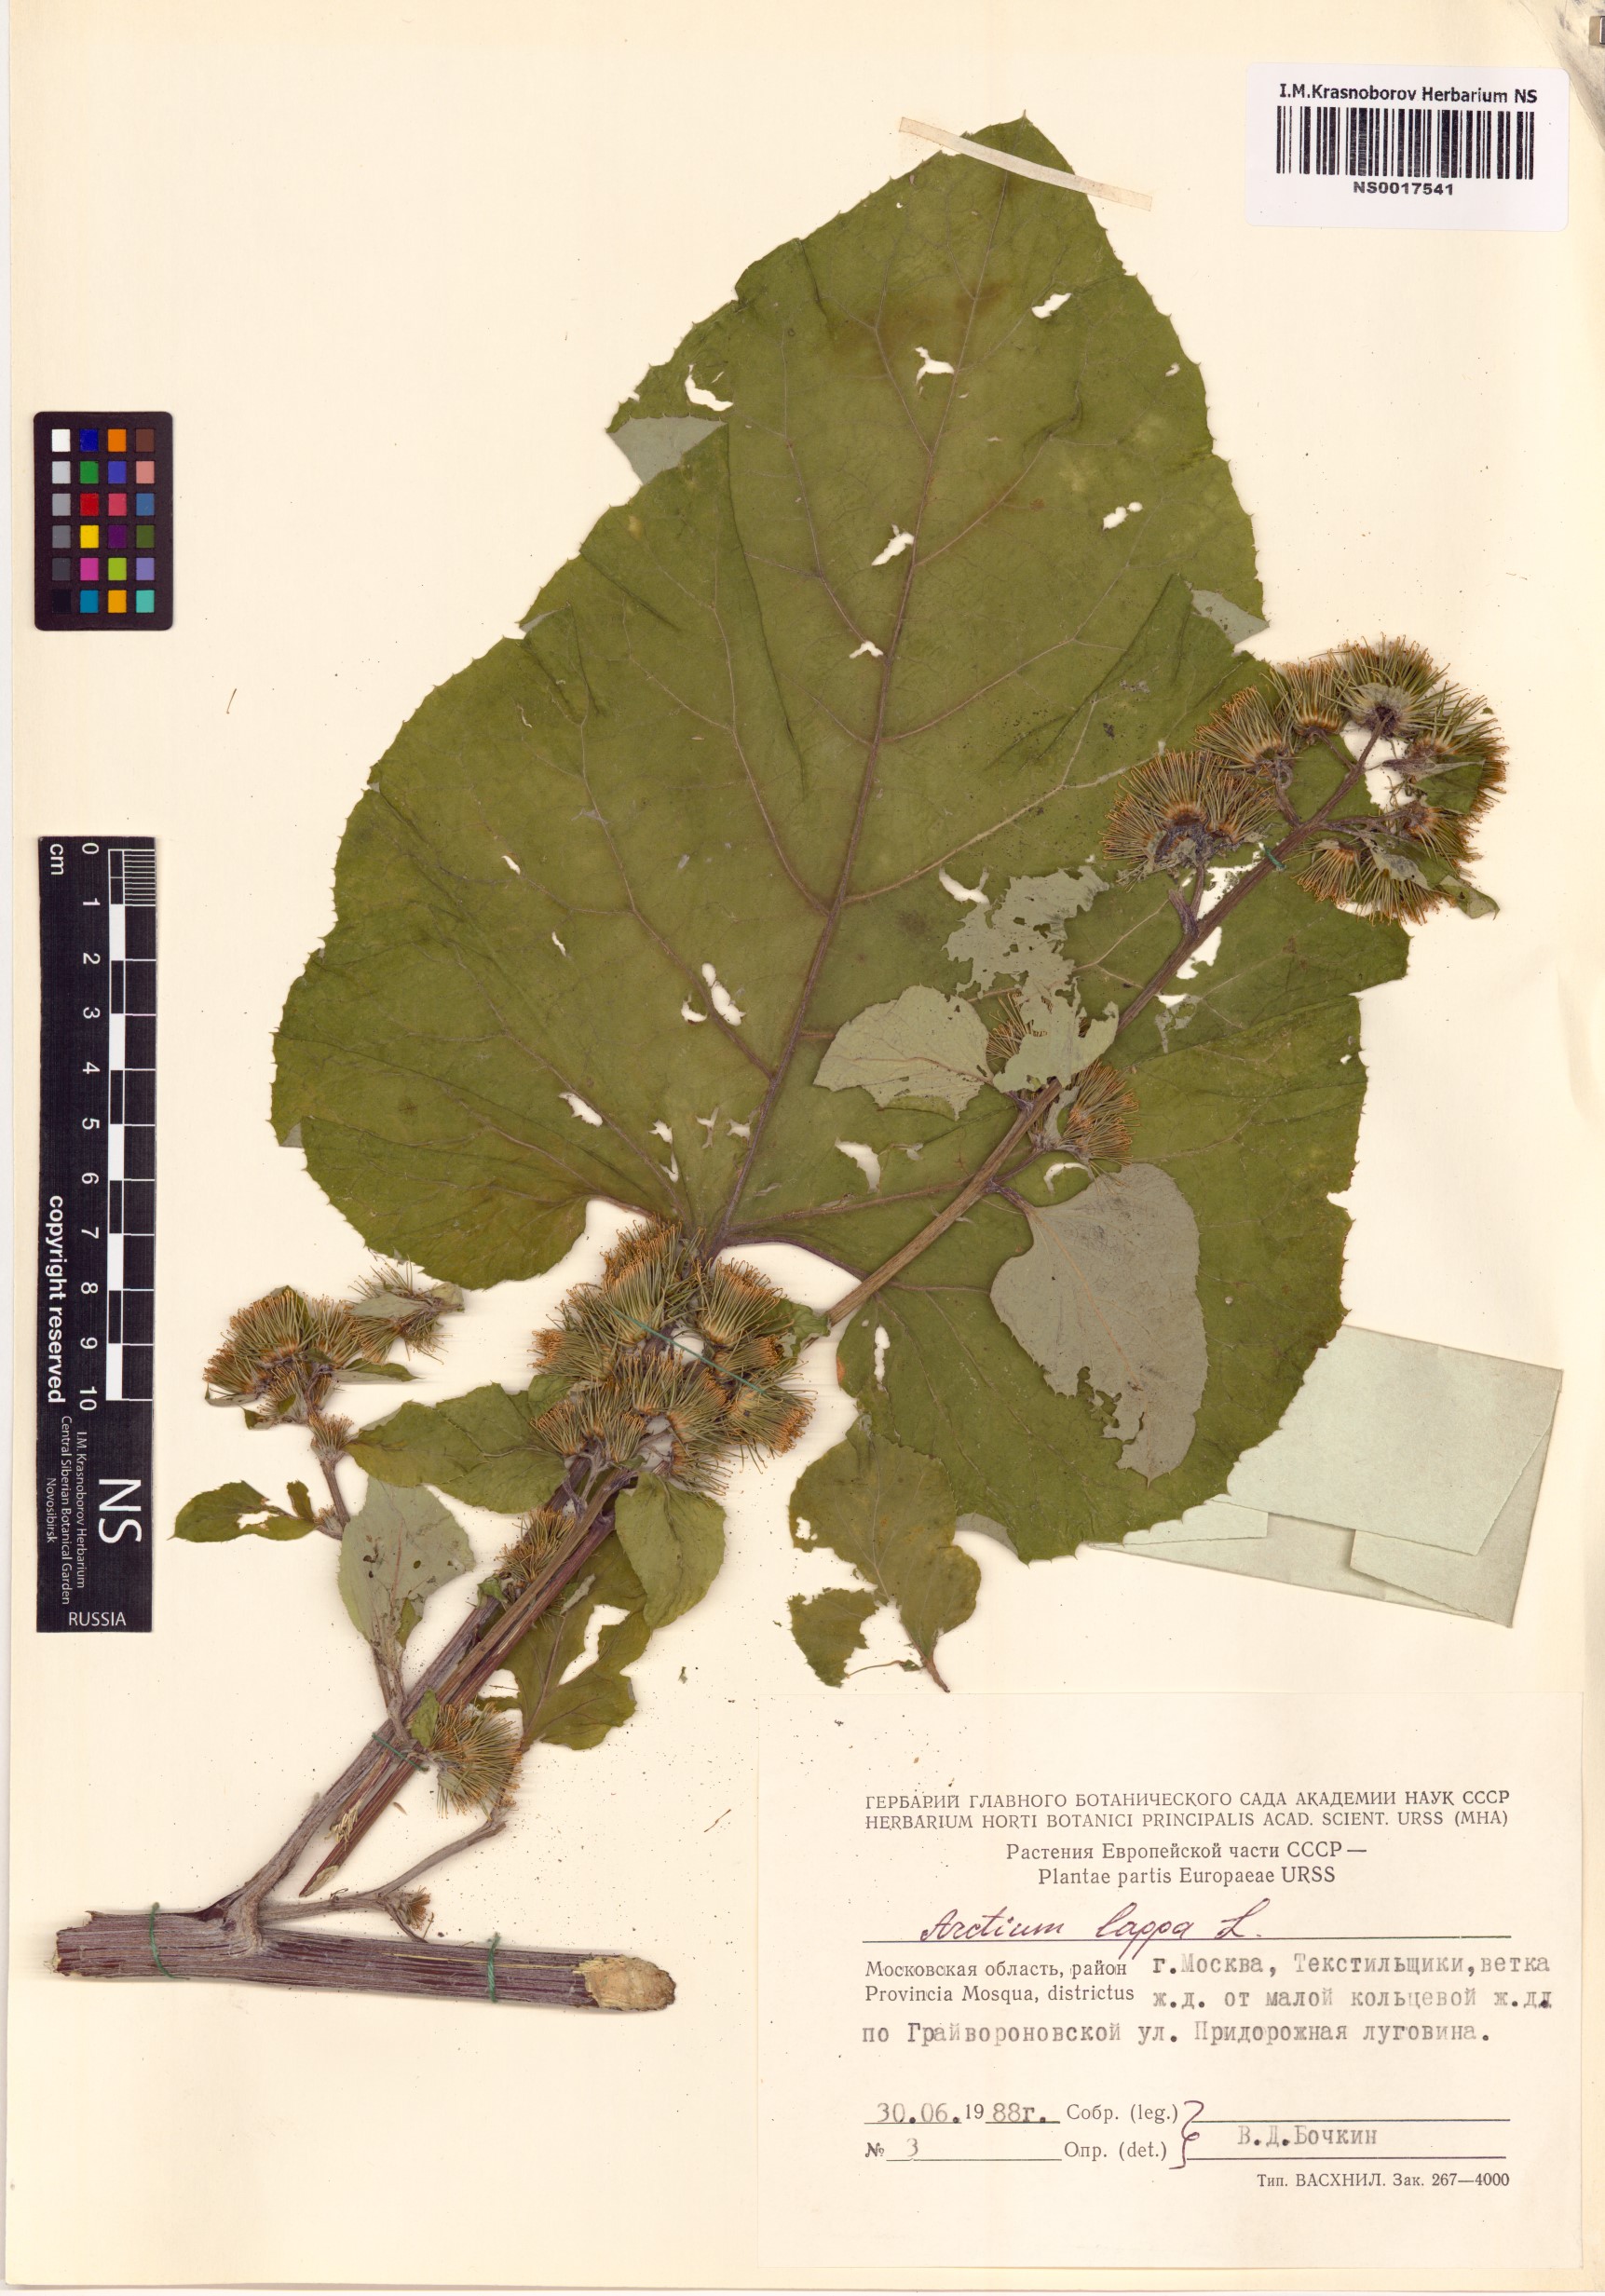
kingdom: Plantae
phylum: Tracheophyta
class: Magnoliopsida
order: Asterales
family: Asteraceae
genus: Arctium
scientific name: Arctium lappa
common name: Greater burdock
